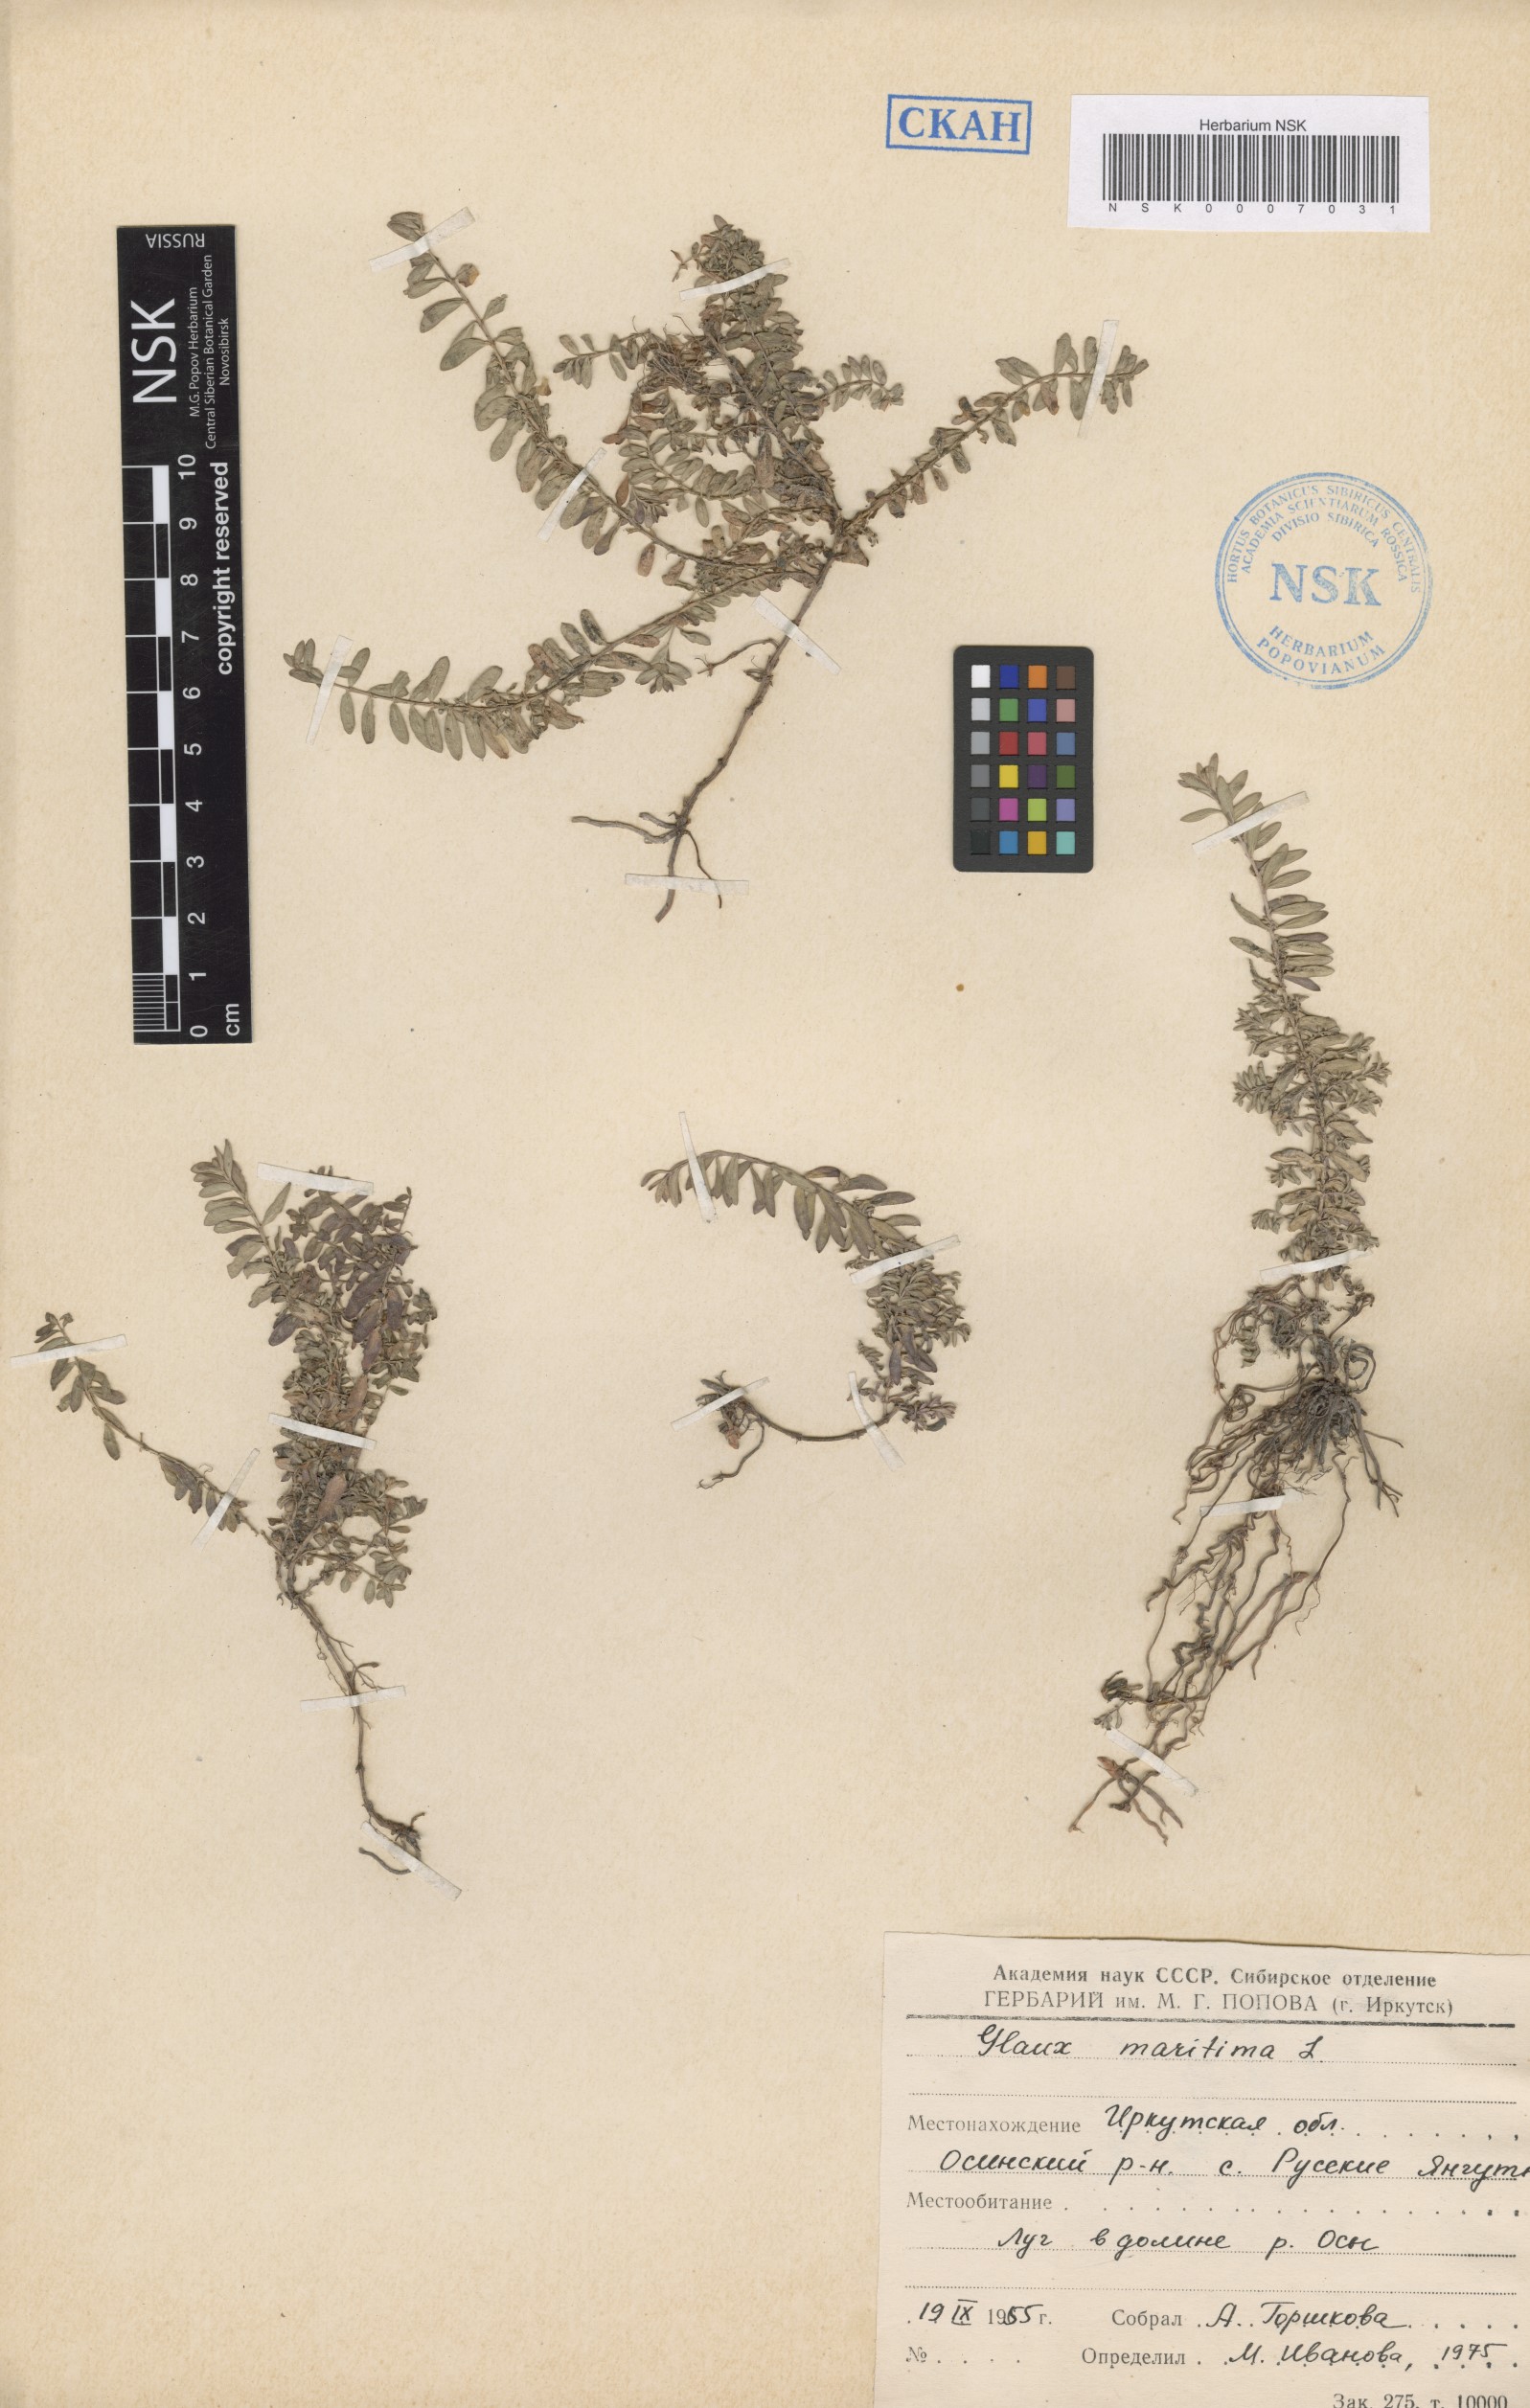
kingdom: Plantae
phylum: Tracheophyta
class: Magnoliopsida
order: Ericales
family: Primulaceae
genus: Lysimachia
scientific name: Lysimachia maritima
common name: Sea milkwort
